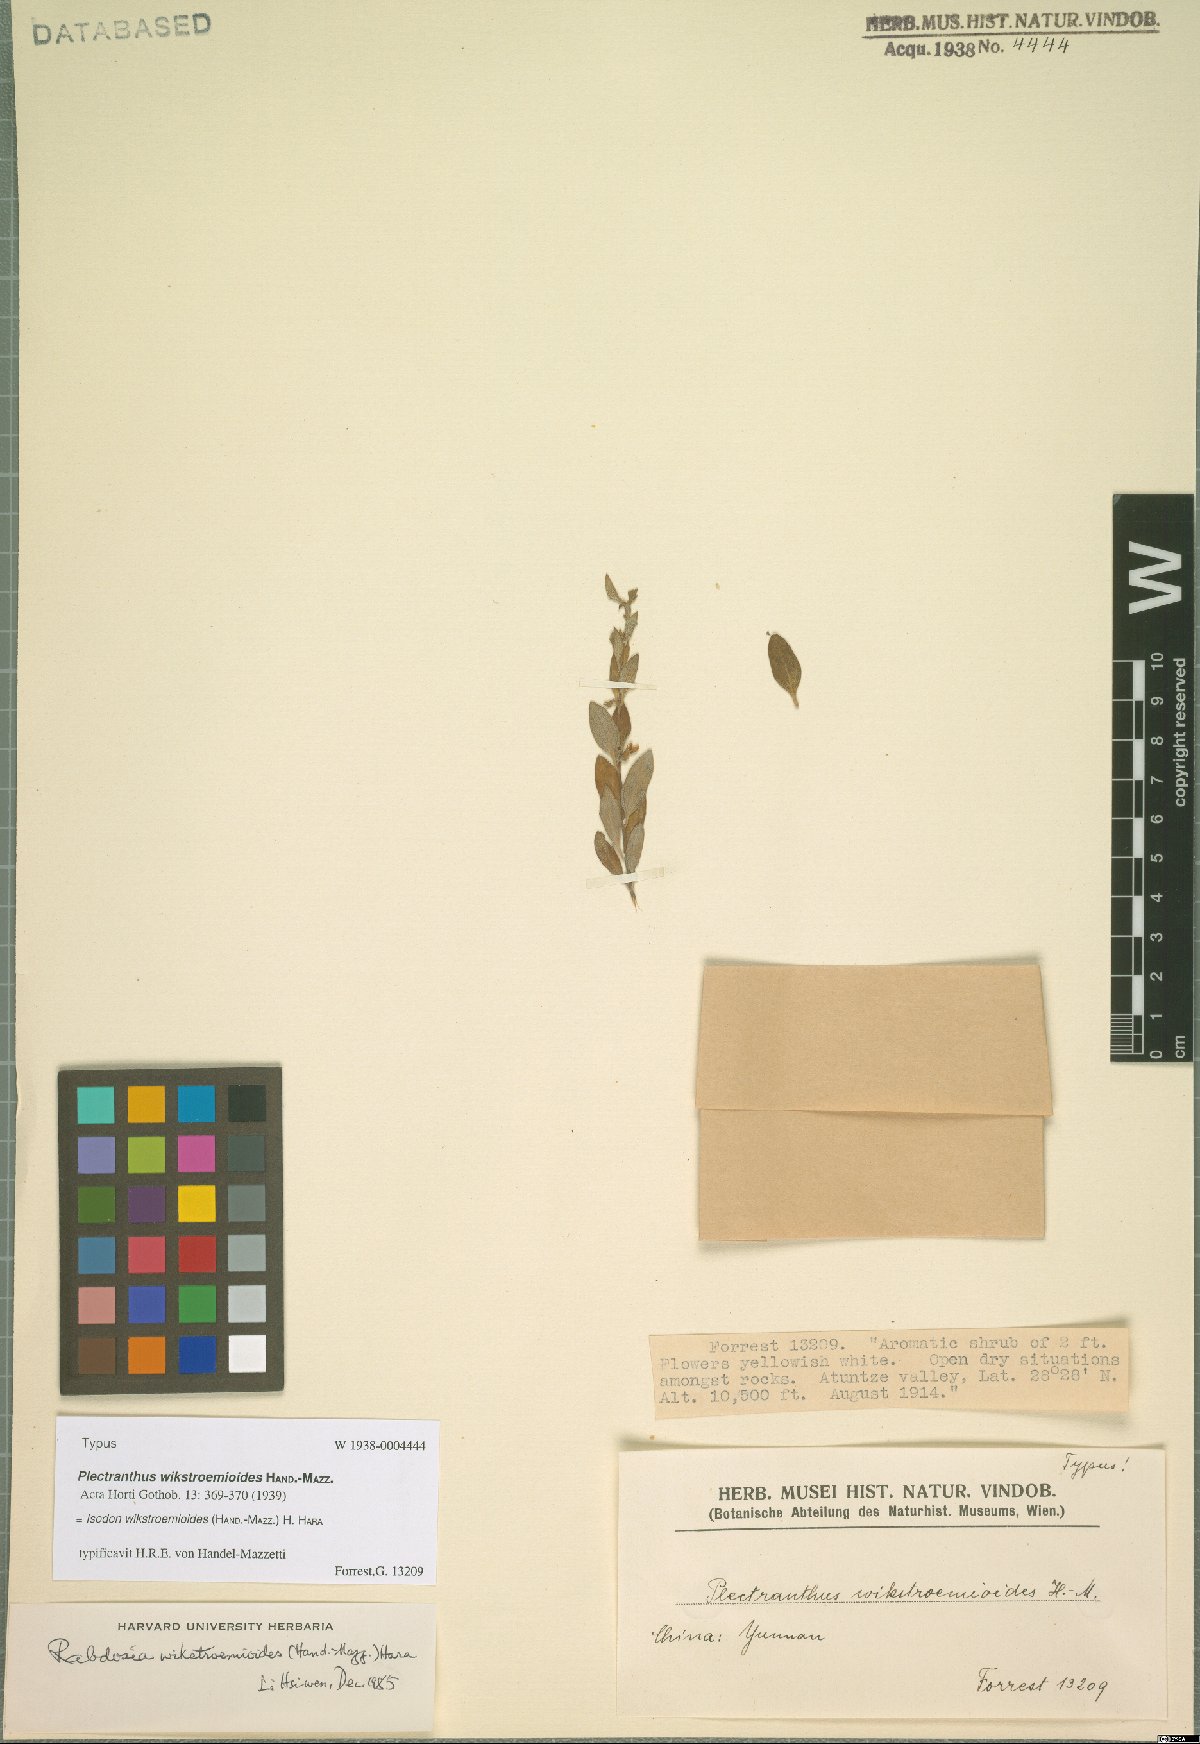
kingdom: Plantae
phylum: Tracheophyta
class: Magnoliopsida
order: Lamiales
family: Lamiaceae
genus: Isodon
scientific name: Isodon wikstroemioides
